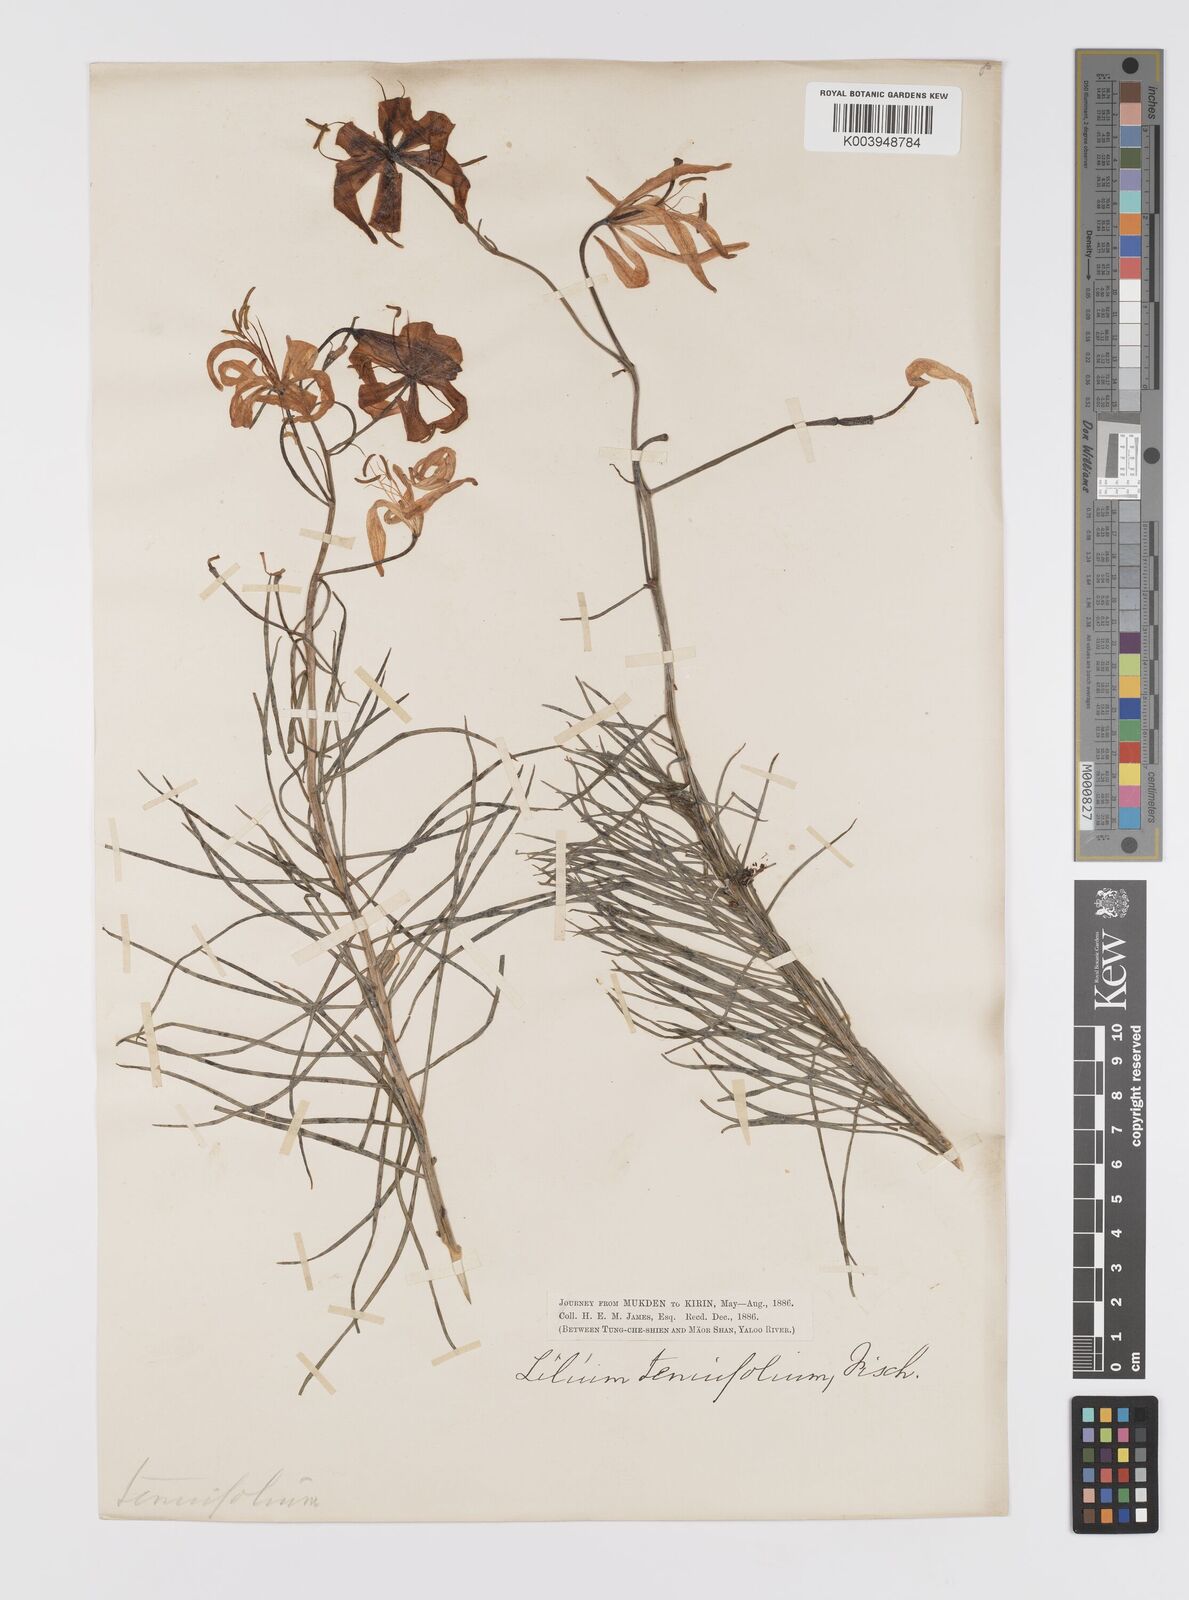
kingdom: Plantae
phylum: Tracheophyta
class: Liliopsida
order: Liliales
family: Liliaceae
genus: Lilium
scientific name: Lilium pumilum
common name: Coral lily
